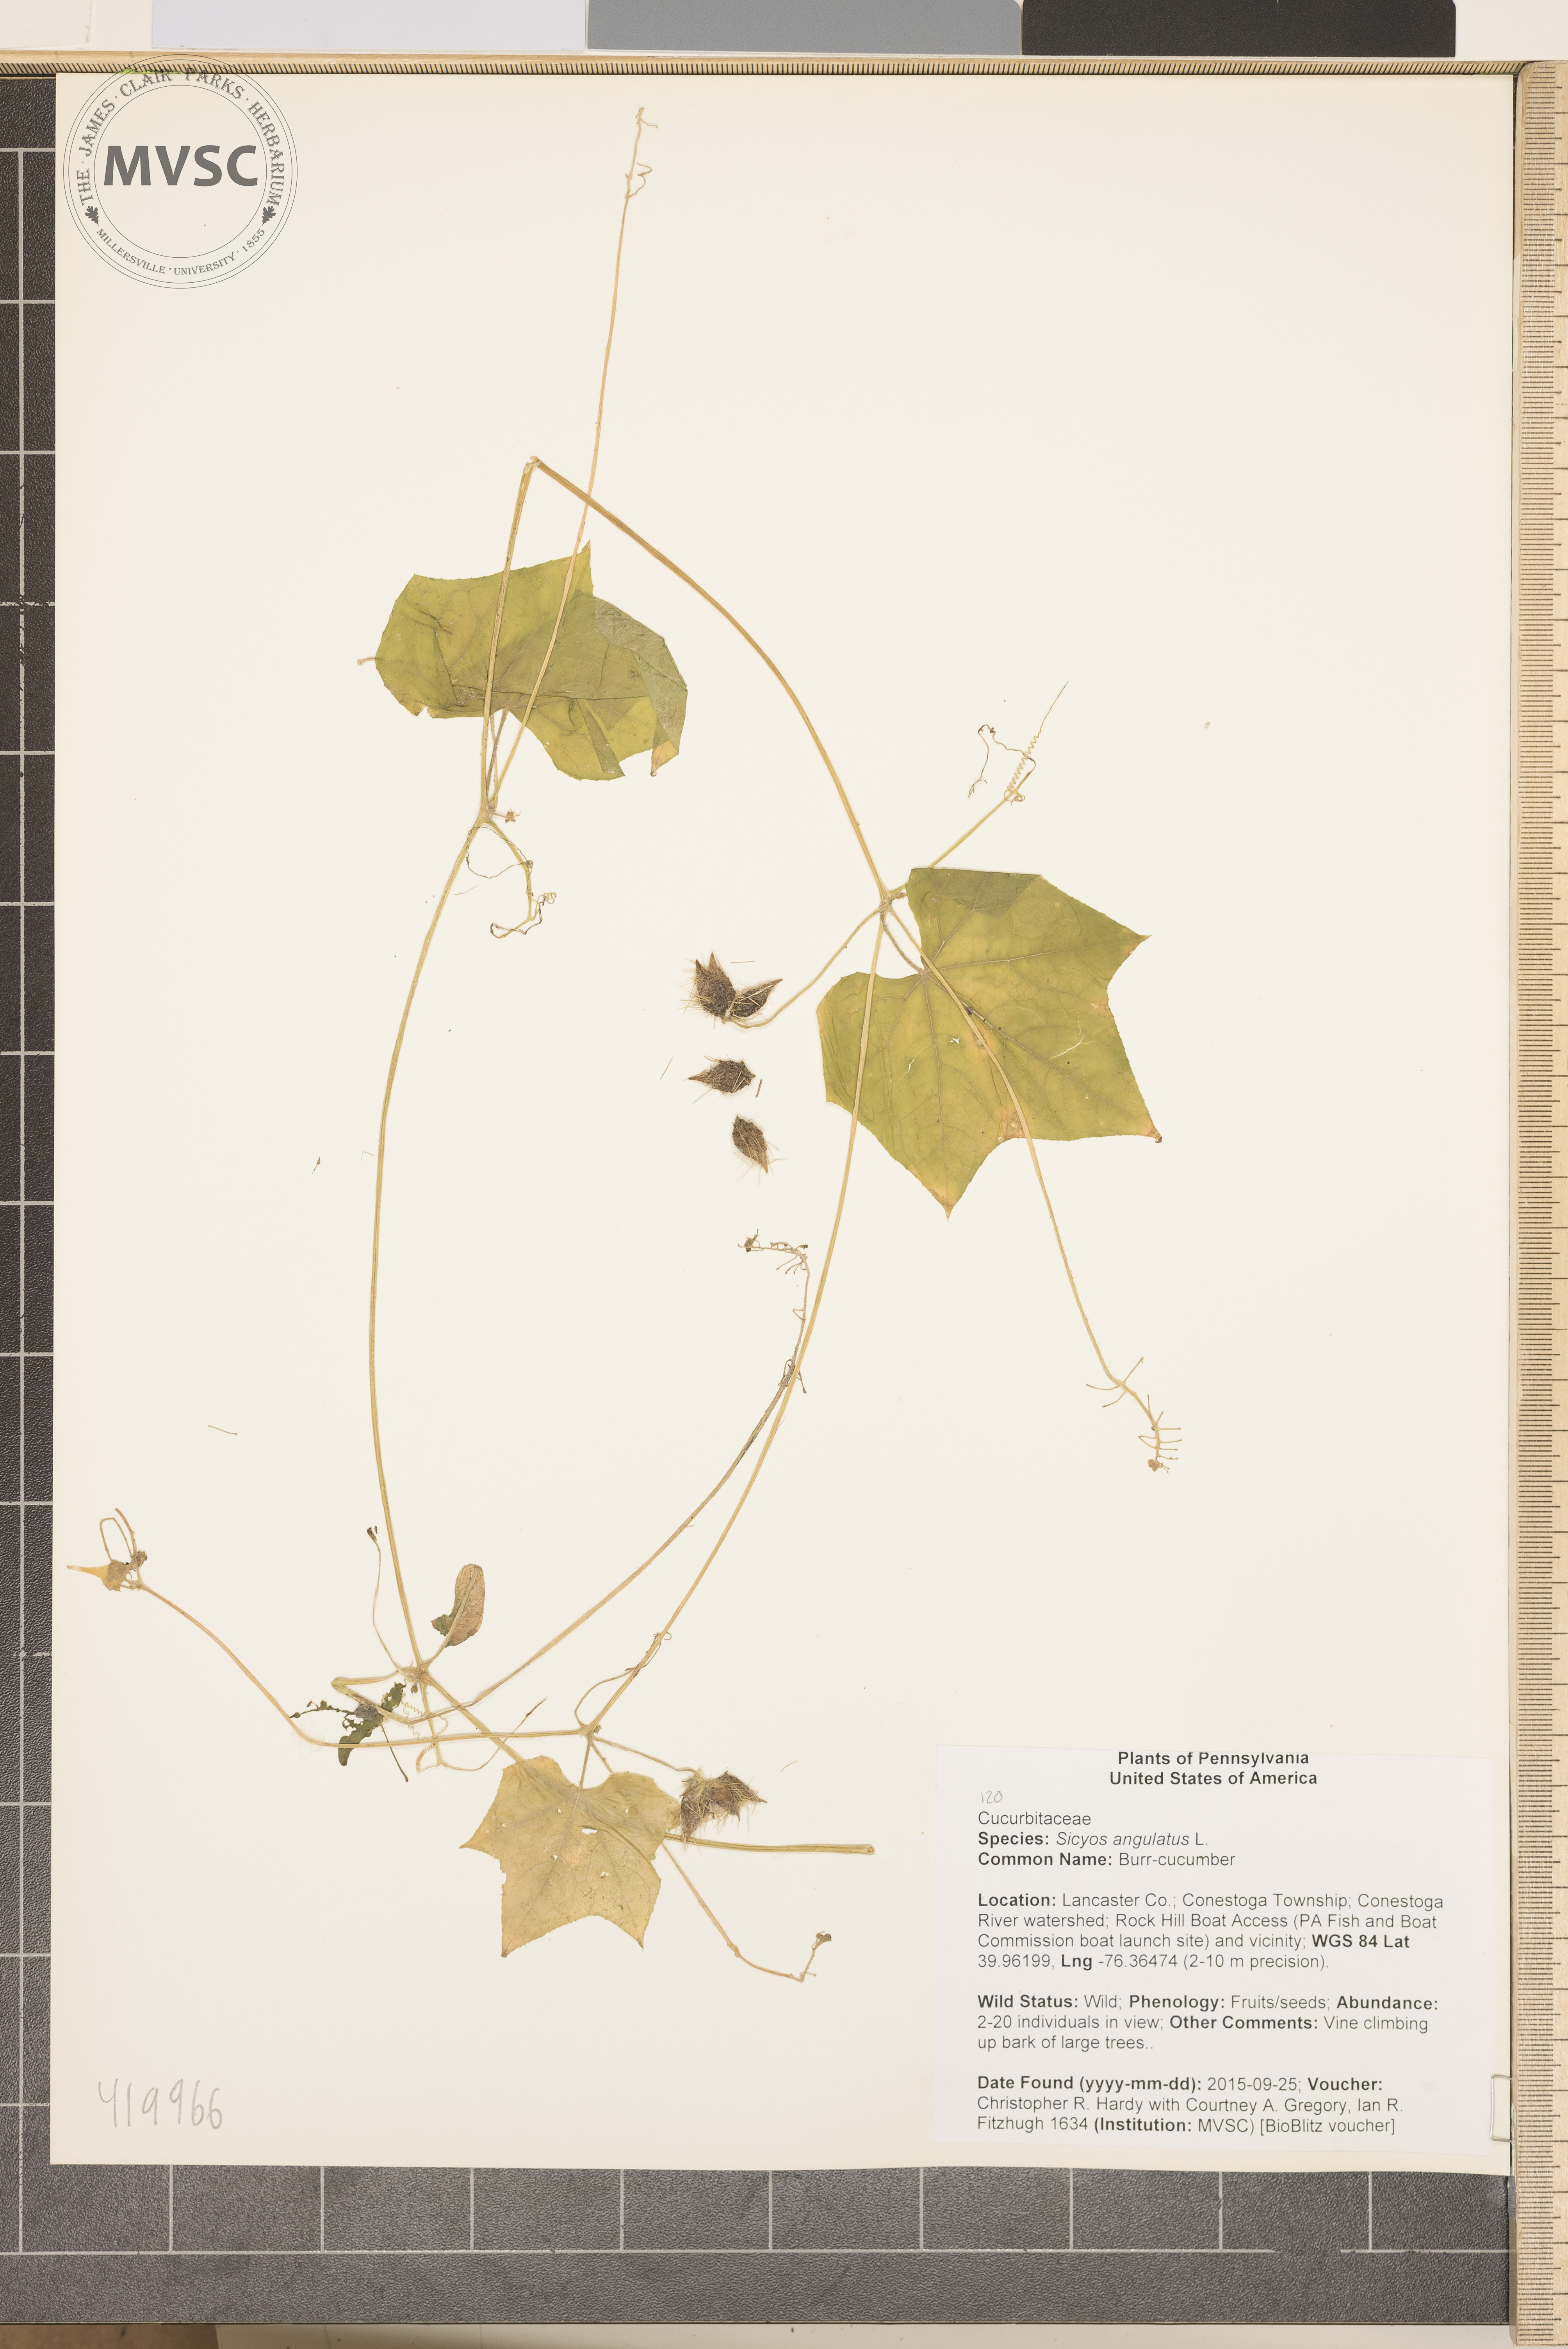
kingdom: Plantae
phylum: Tracheophyta
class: Magnoliopsida
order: Cucurbitales
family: Cucurbitaceae
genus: Sicyos
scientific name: Sicyos angulatus
